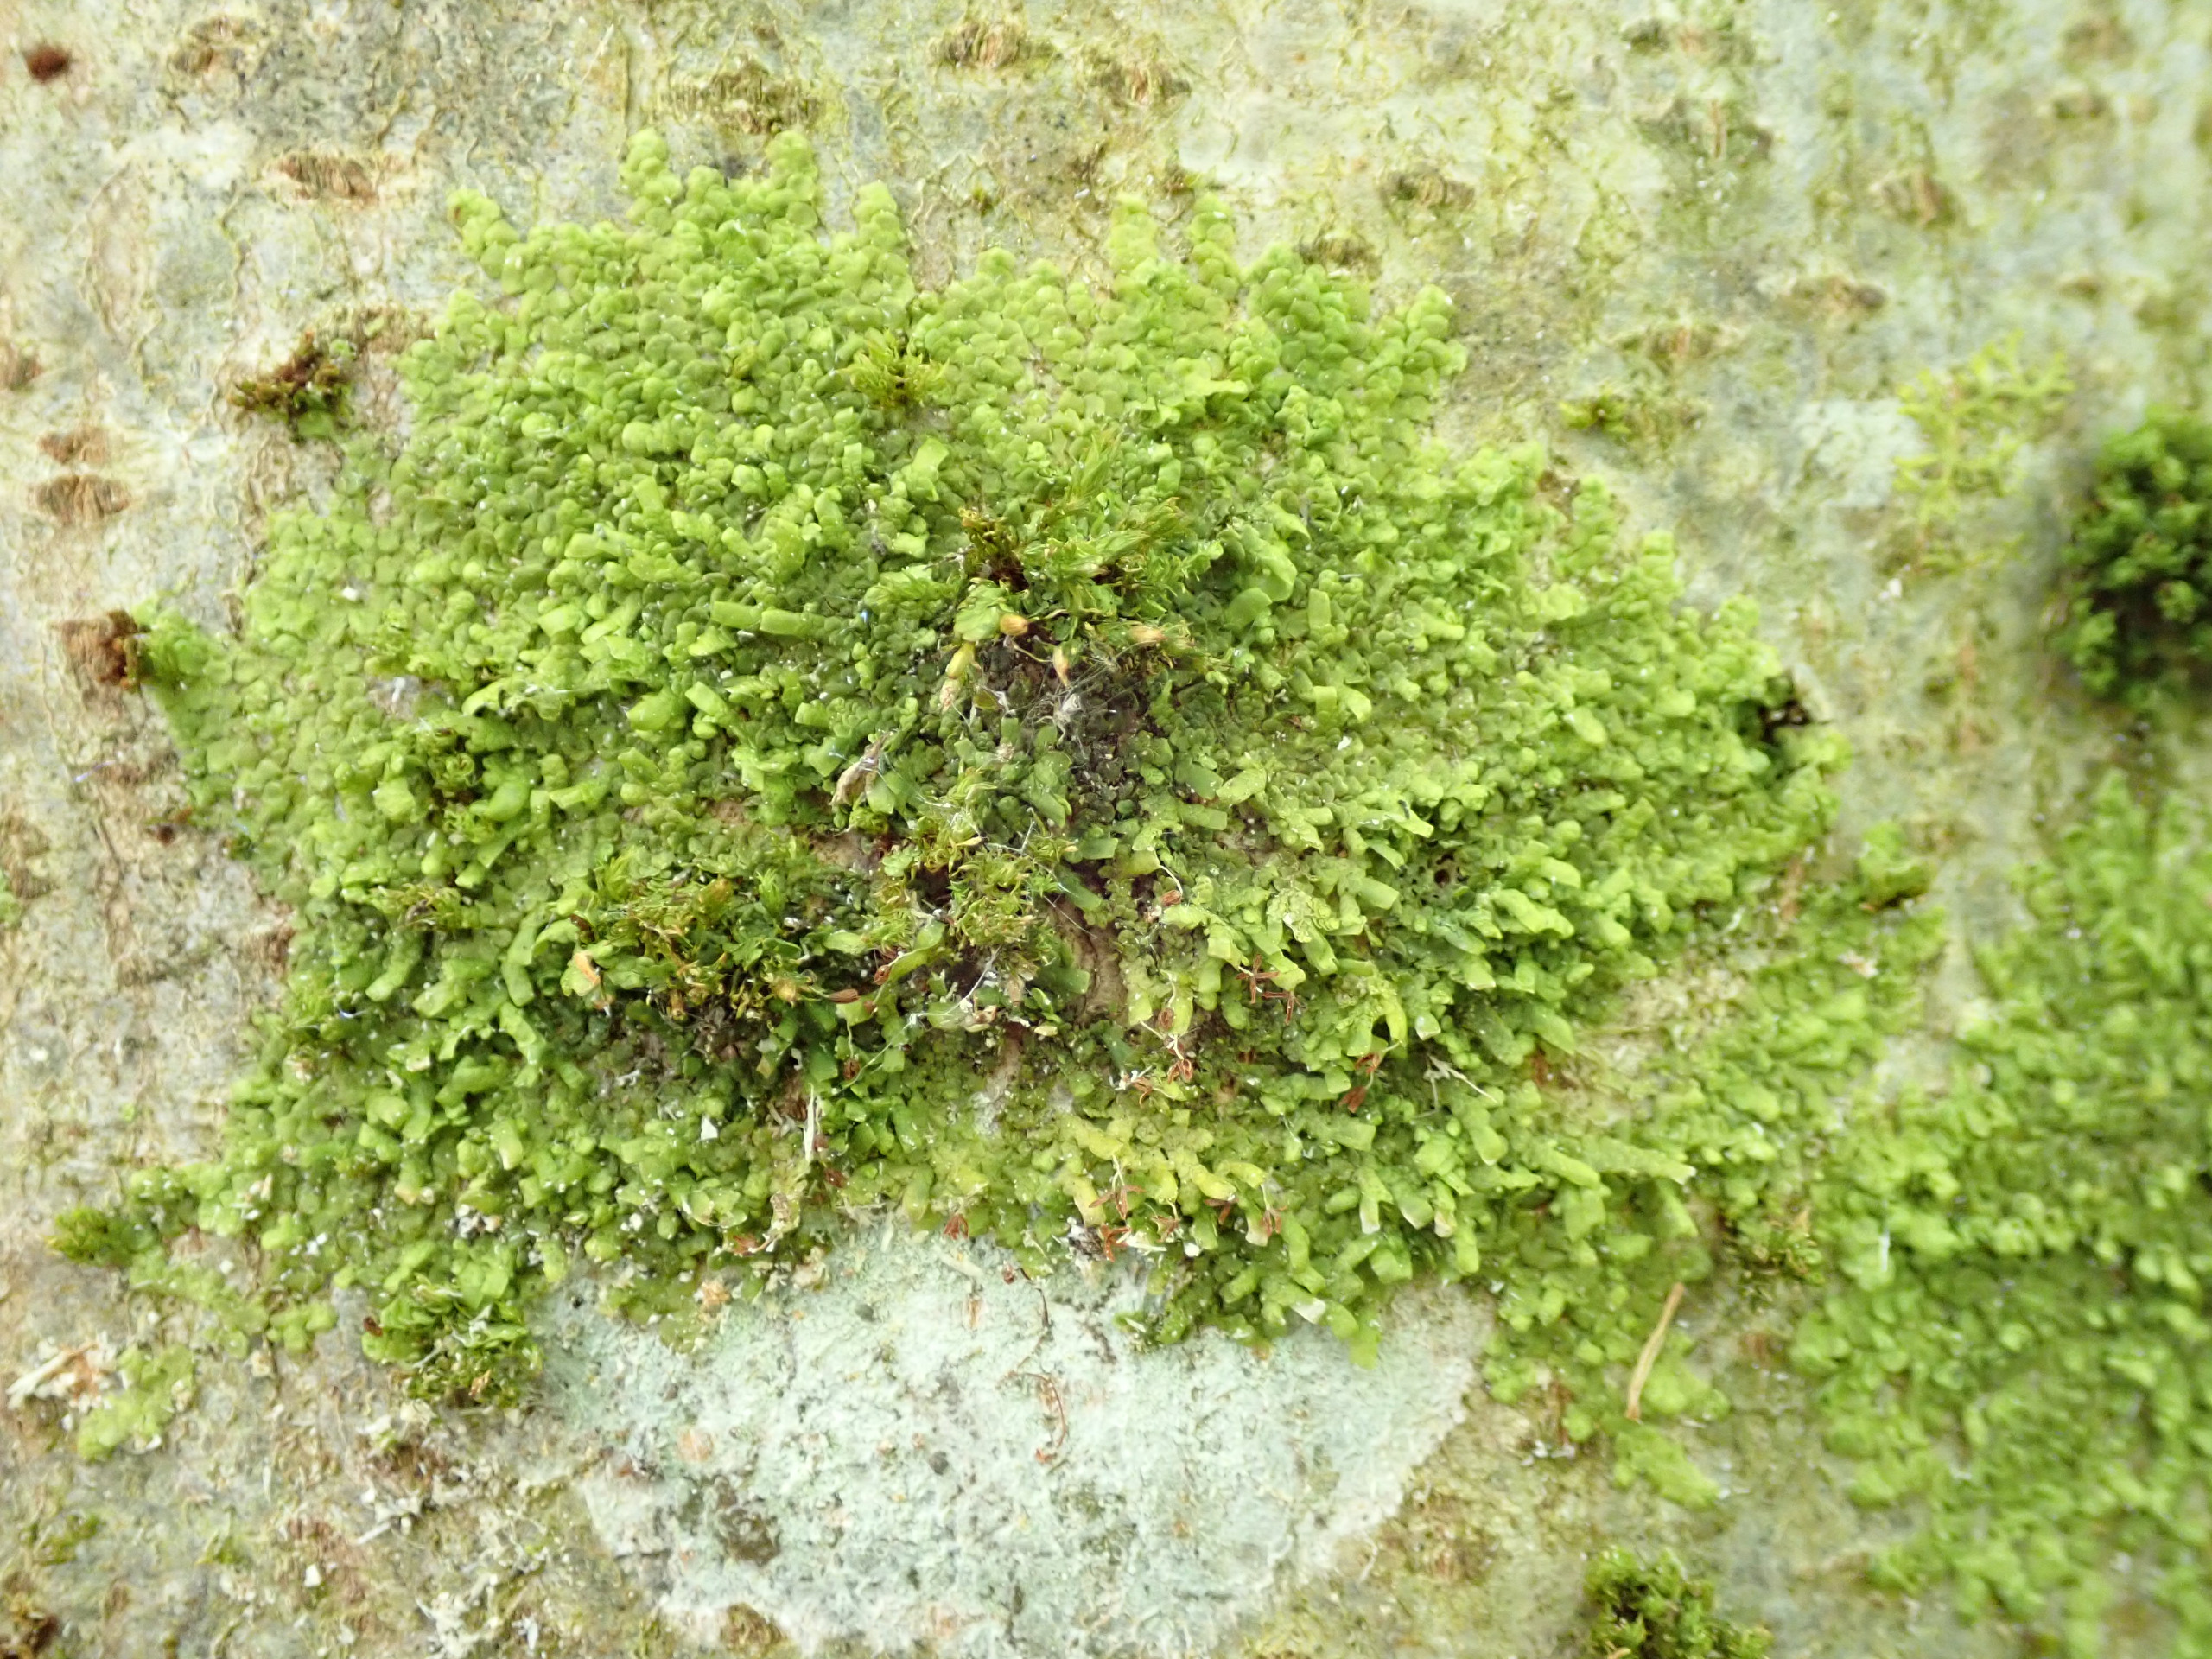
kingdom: Plantae
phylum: Marchantiophyta
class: Jungermanniopsida
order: Porellales
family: Radulaceae
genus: Radula
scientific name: Radula complanata
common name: Almindelig spartelmos
